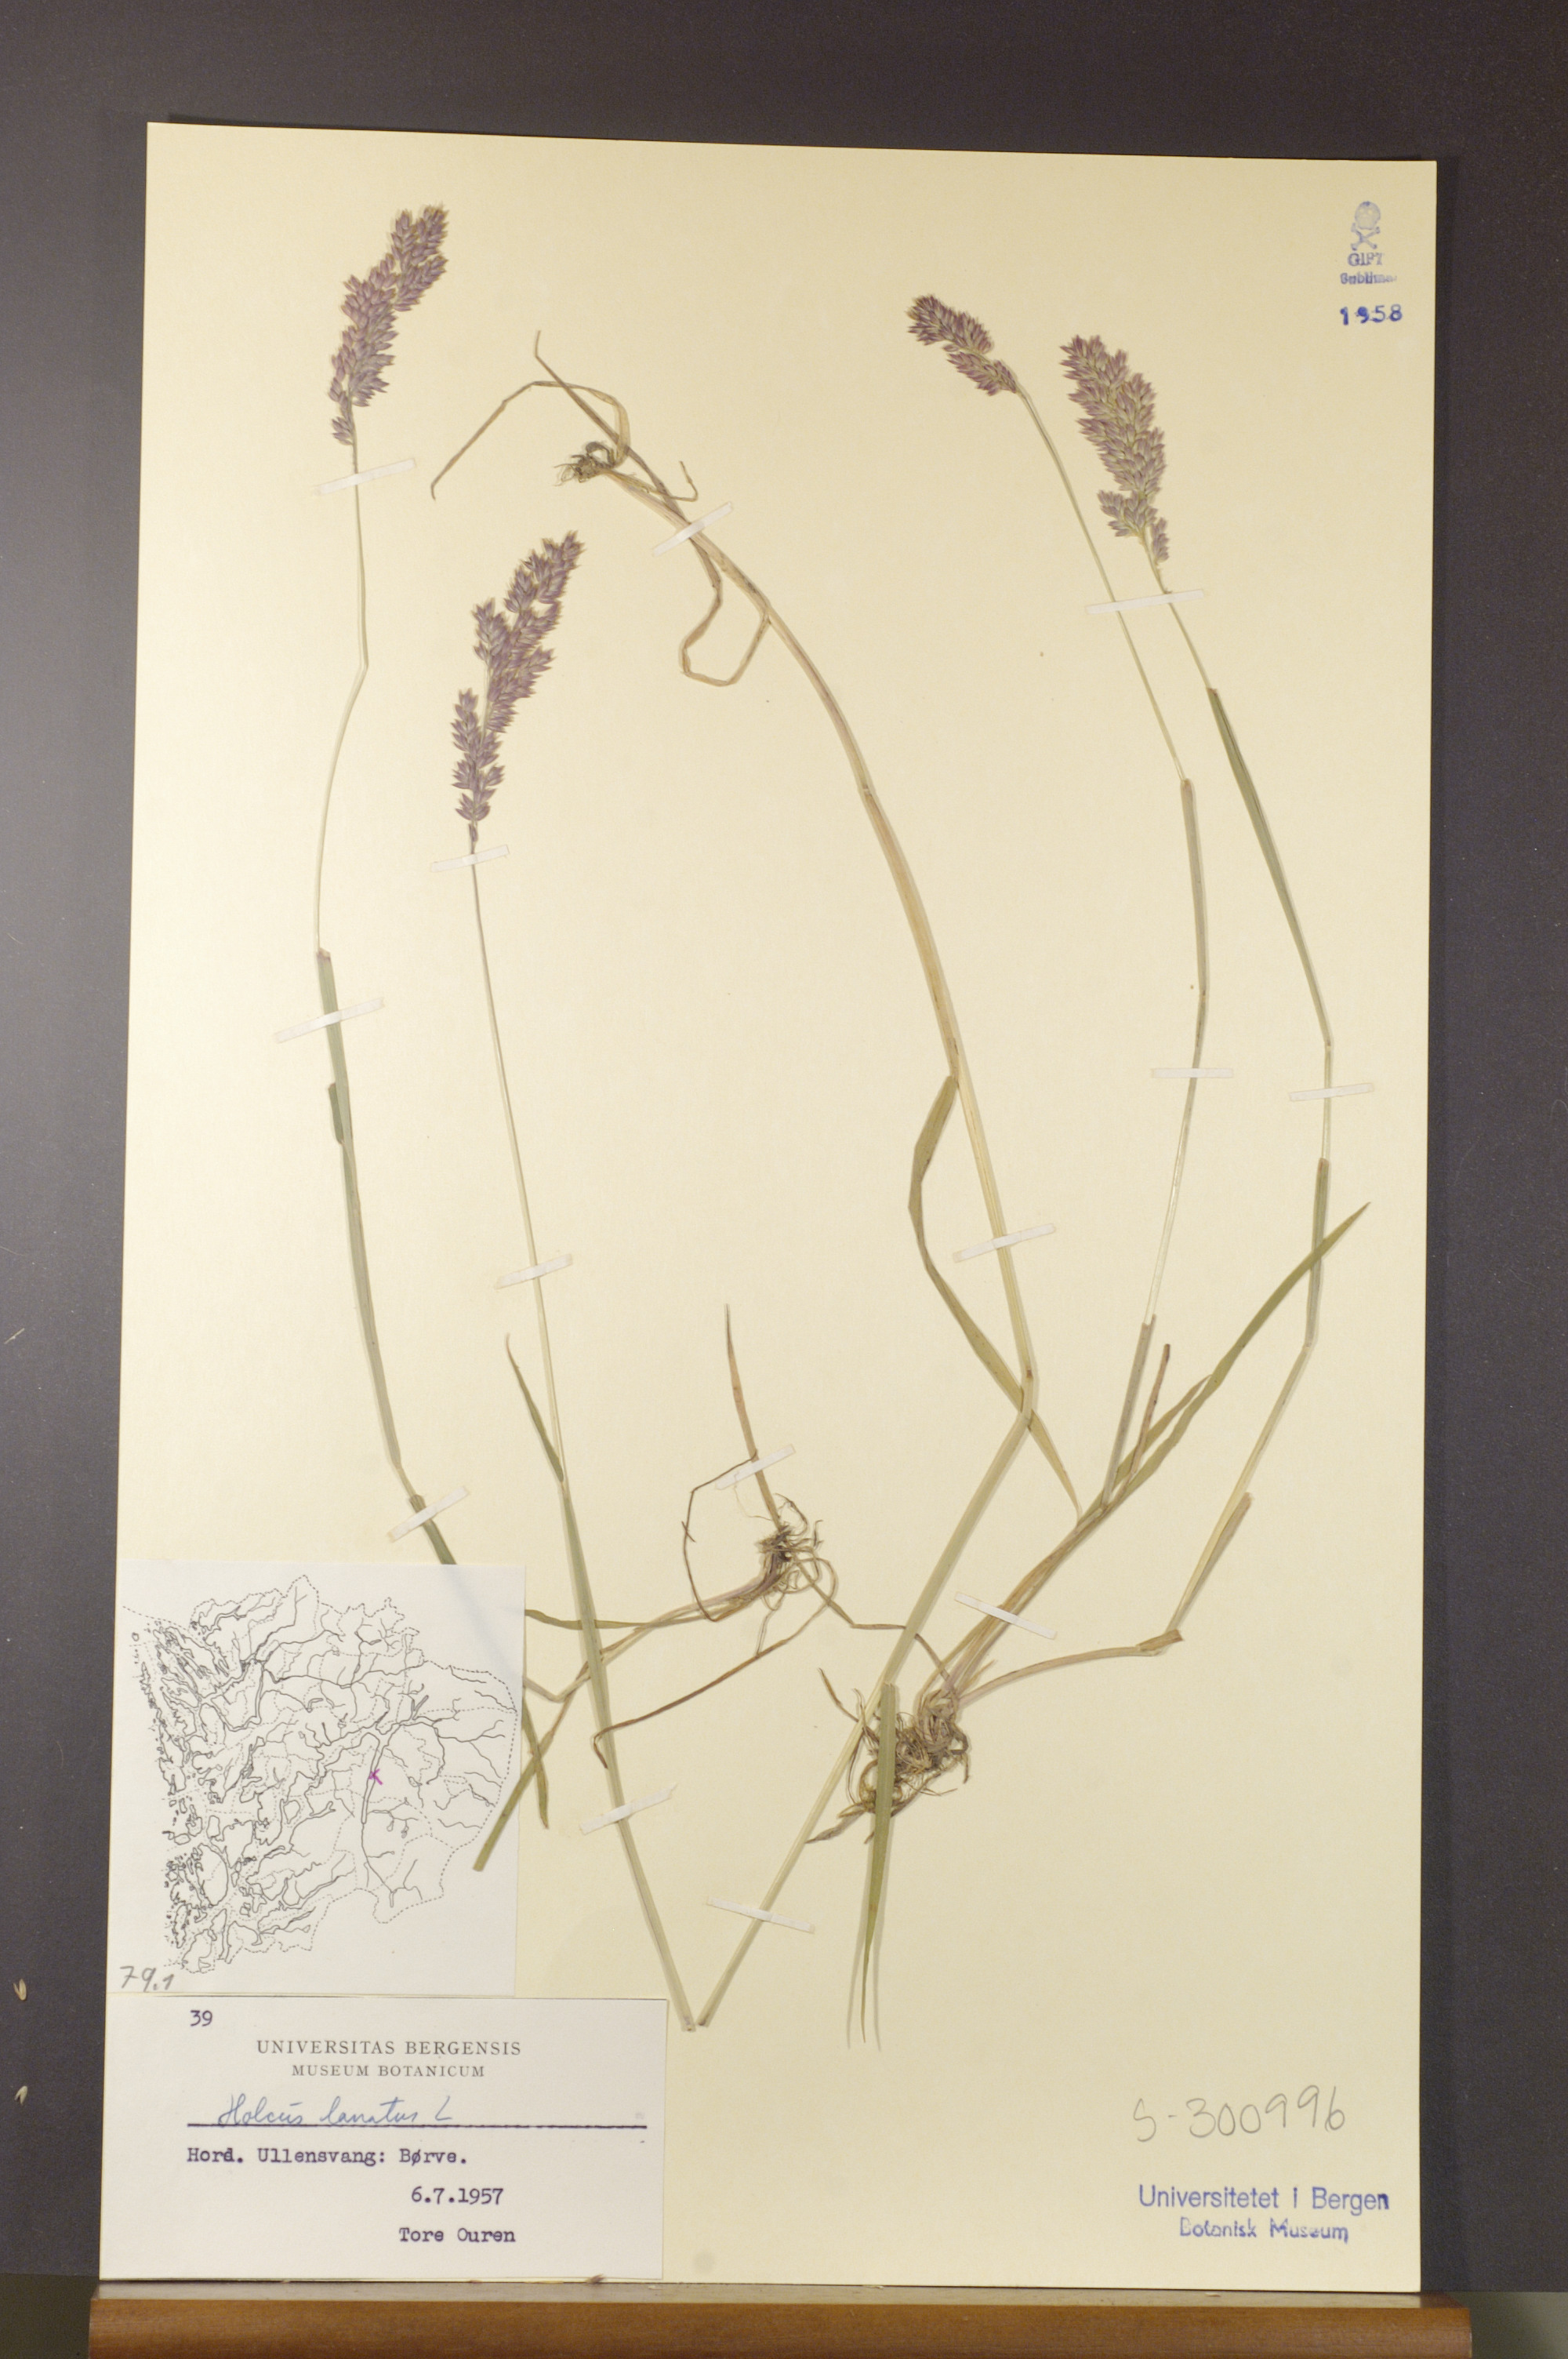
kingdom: Plantae
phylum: Tracheophyta
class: Liliopsida
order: Poales
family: Poaceae
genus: Holcus
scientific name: Holcus lanatus
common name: Yorkshire-fog
